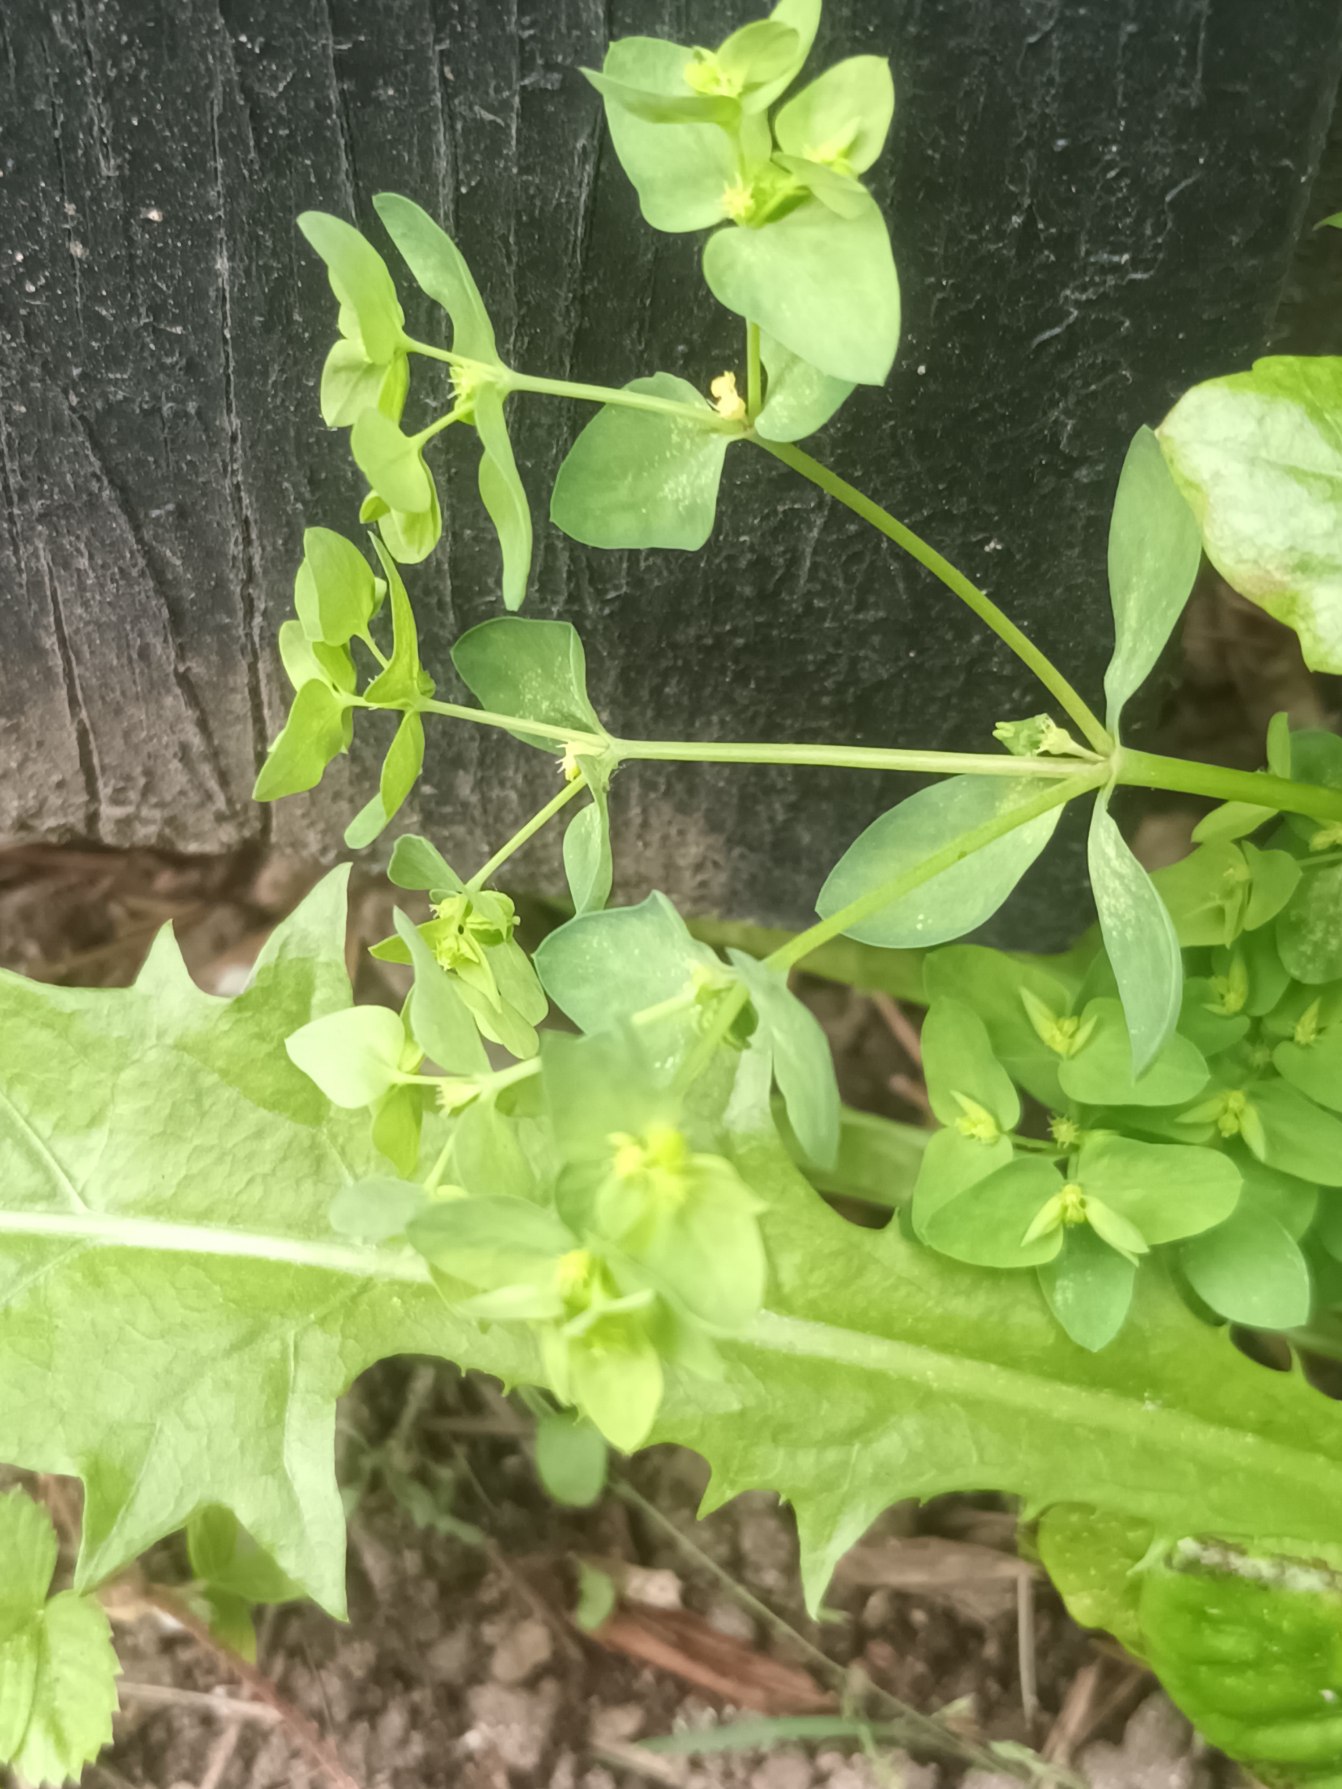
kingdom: Plantae
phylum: Tracheophyta
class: Magnoliopsida
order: Malpighiales
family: Euphorbiaceae
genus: Euphorbia
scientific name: Euphorbia peplus
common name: Gaffel-vortemælk
